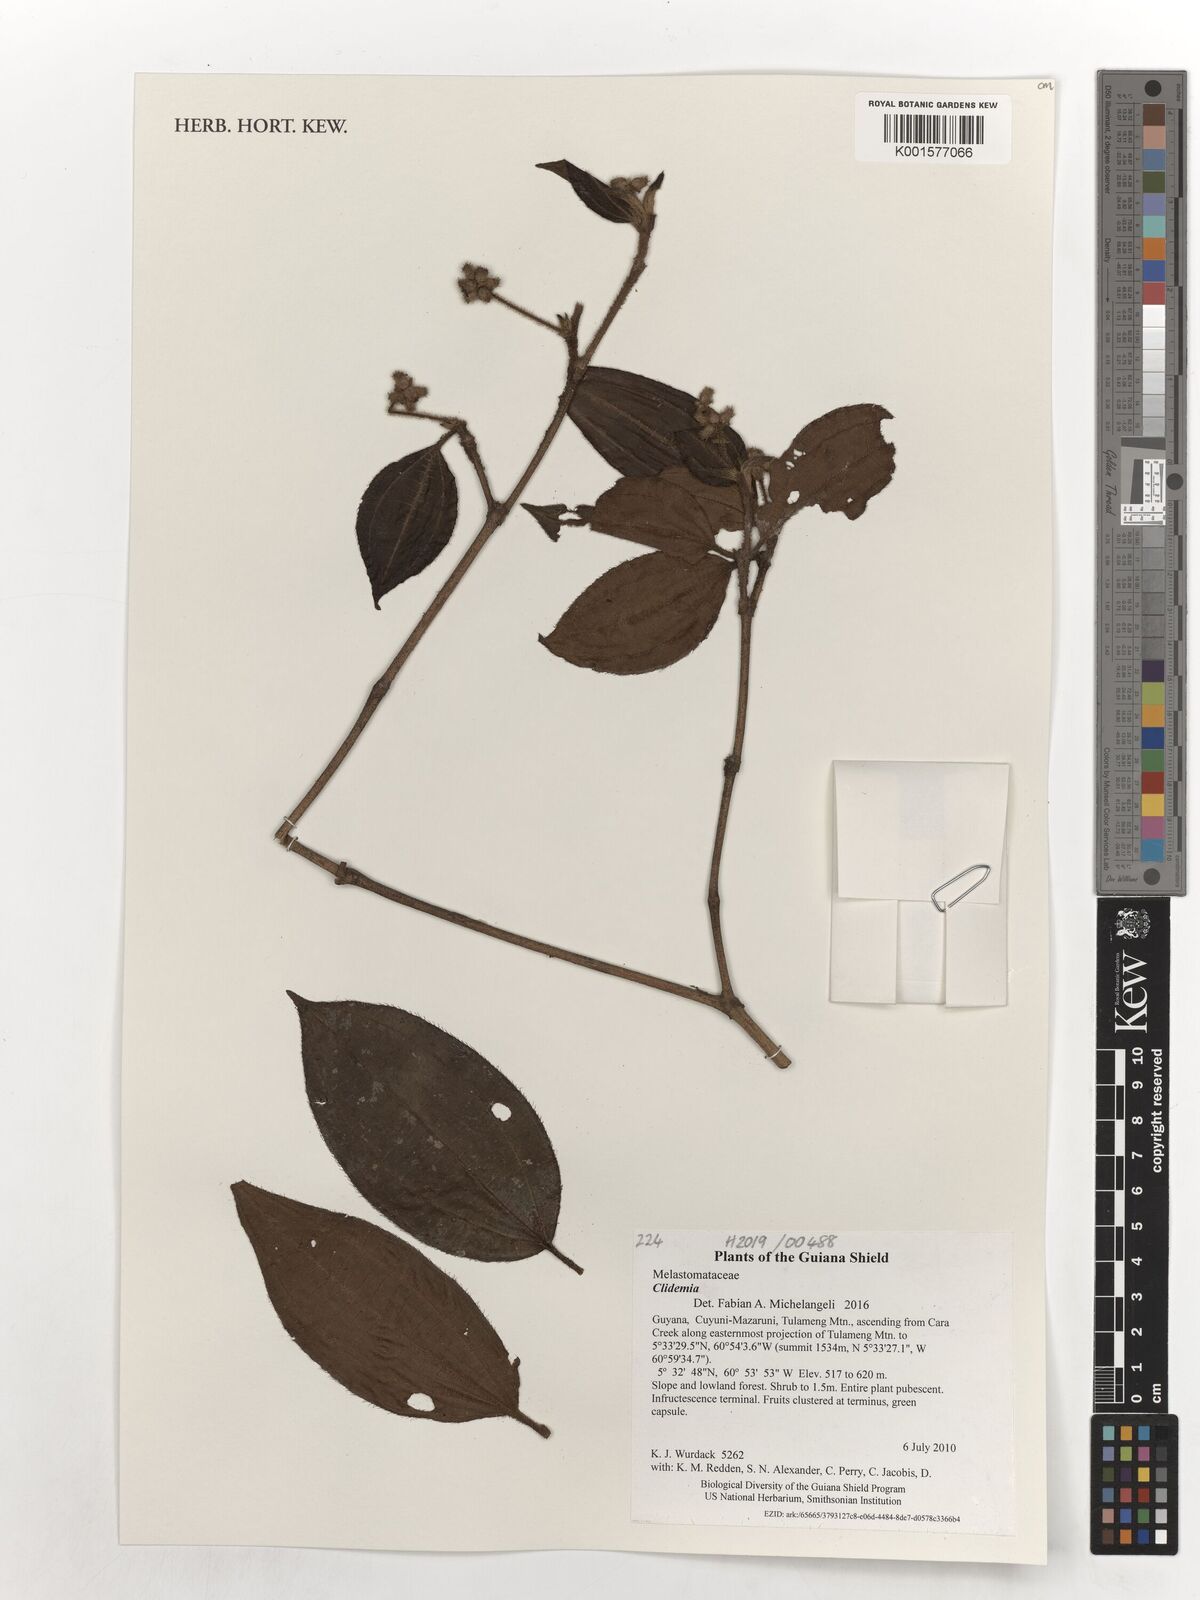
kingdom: Plantae
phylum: Tracheophyta
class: Magnoliopsida
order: Myrtales
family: Melastomataceae
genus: Miconia
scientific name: Miconia
